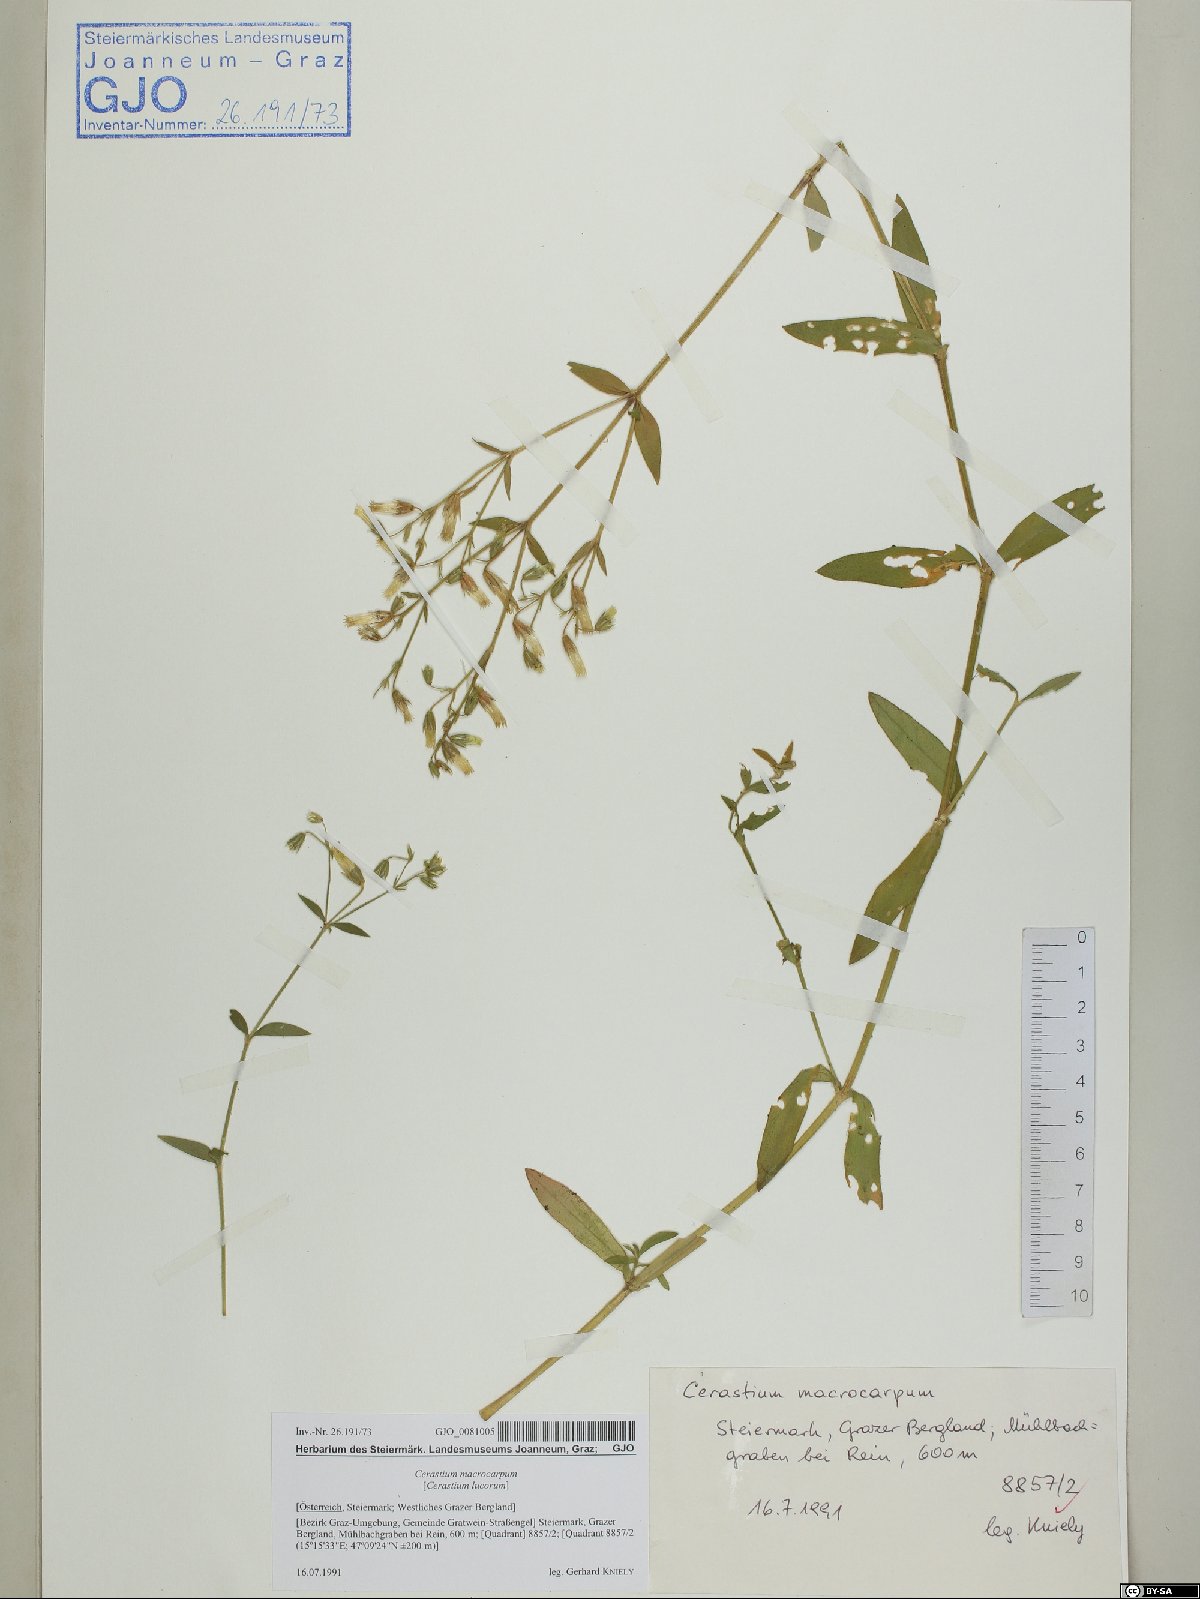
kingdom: Plantae
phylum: Tracheophyta
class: Magnoliopsida
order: Caryophyllales
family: Caryophyllaceae
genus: Cerastium
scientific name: Cerastium lucorum
